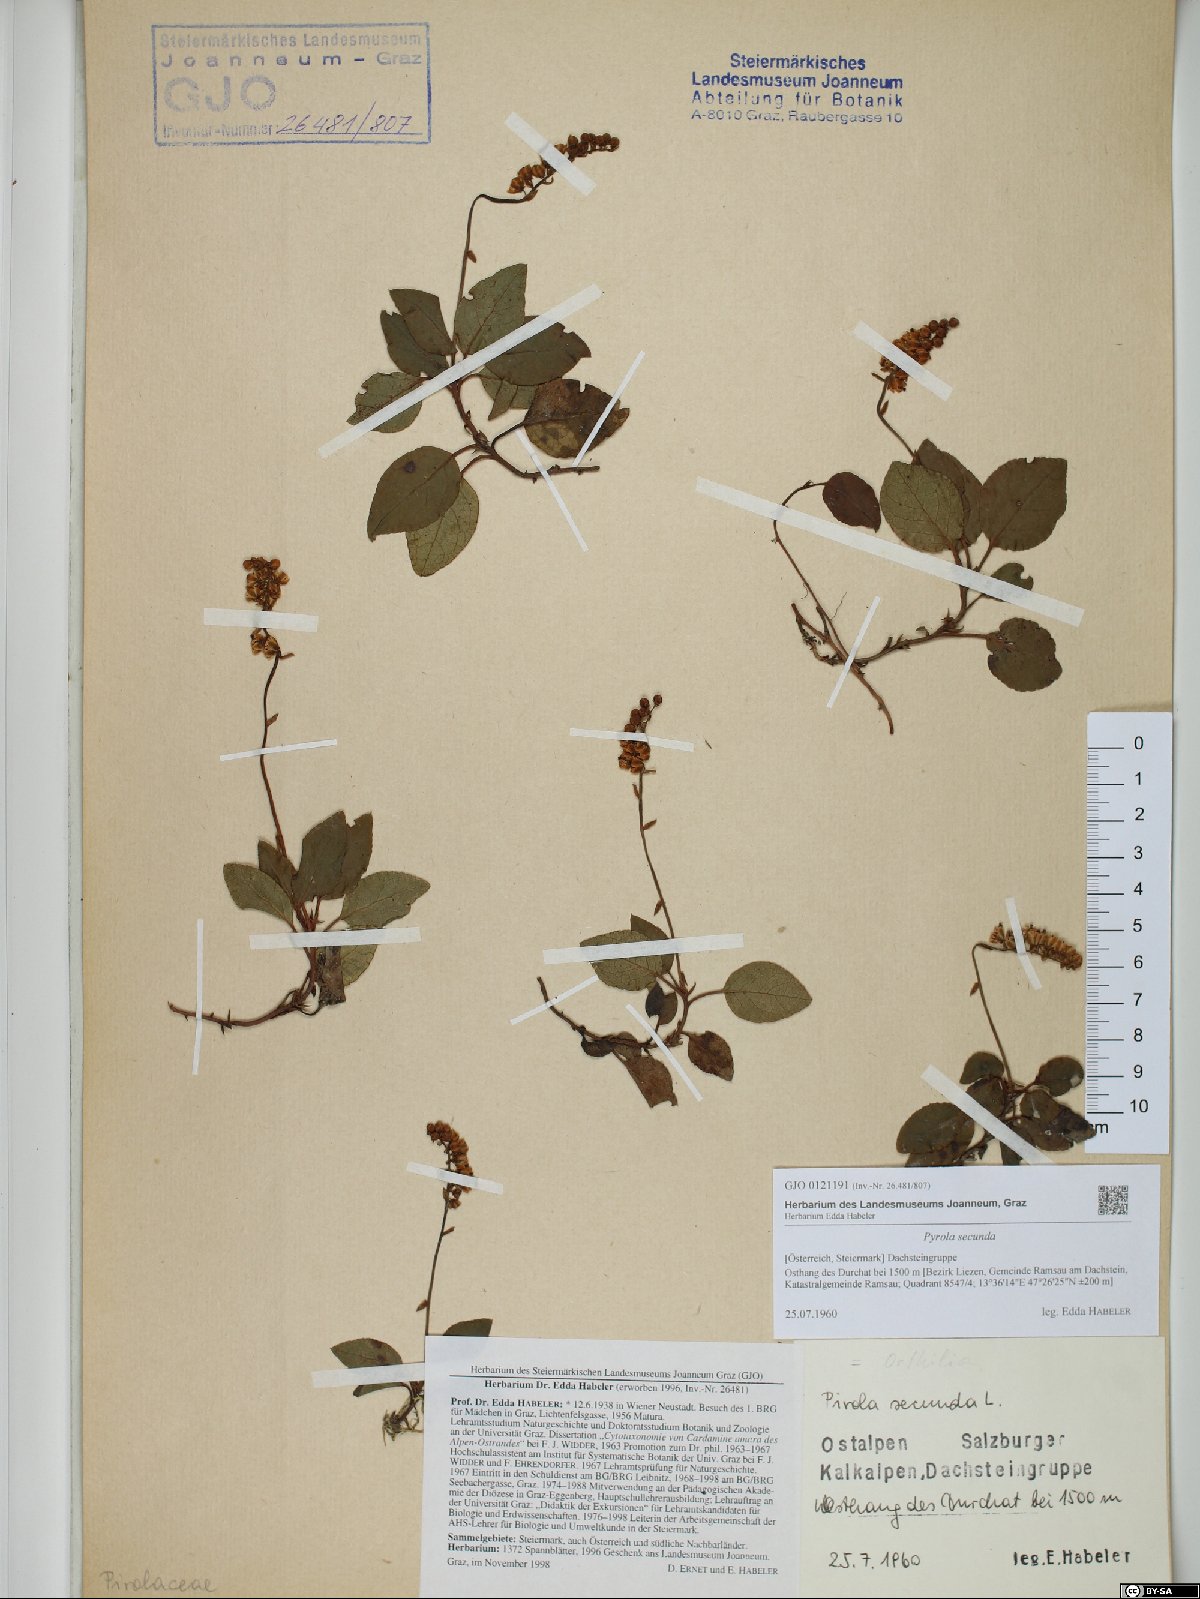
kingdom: Plantae
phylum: Tracheophyta
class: Magnoliopsida
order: Ericales
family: Ericaceae
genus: Orthilia
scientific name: Orthilia secunda
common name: One-sided orthilia
